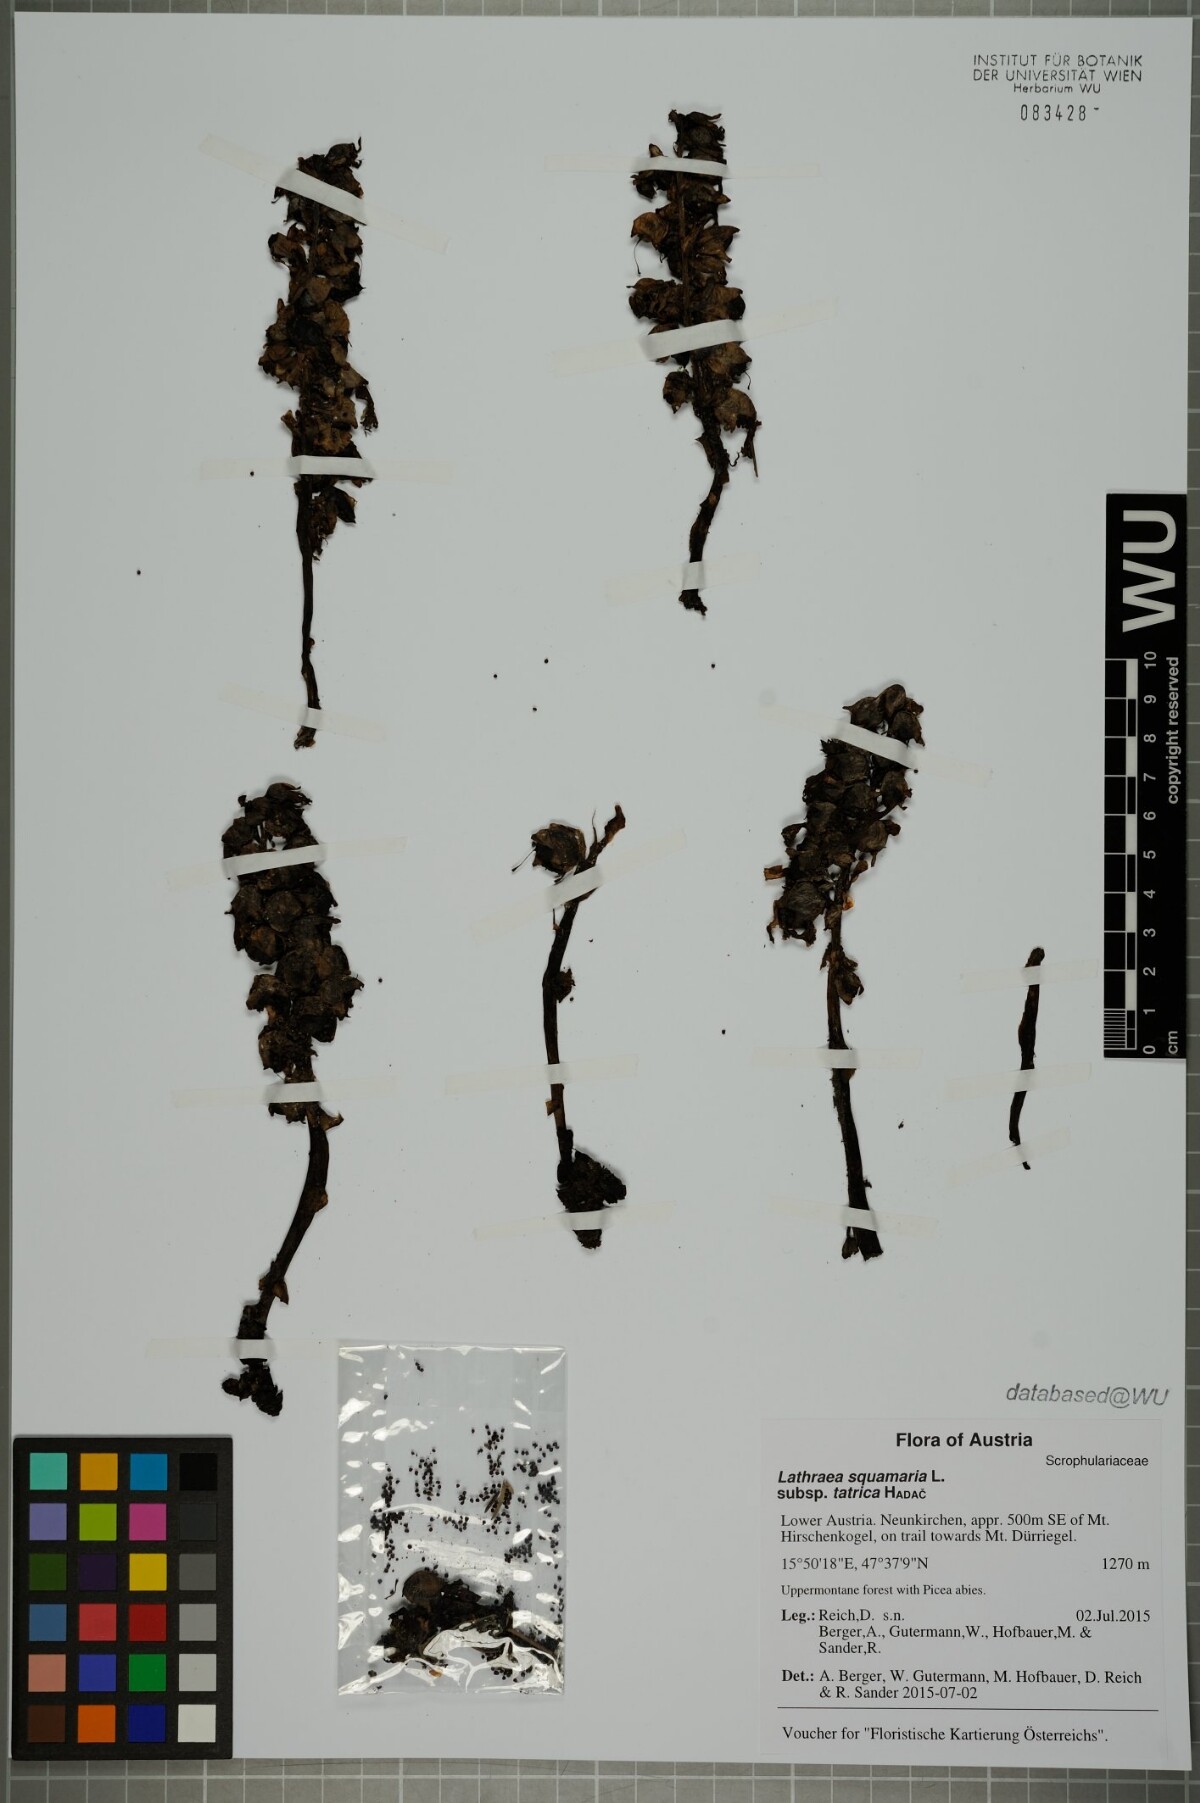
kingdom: Plantae
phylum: Tracheophyta
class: Magnoliopsida
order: Lamiales
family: Orobanchaceae
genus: Lathraea
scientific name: Lathraea squamaria
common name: Toothwort
